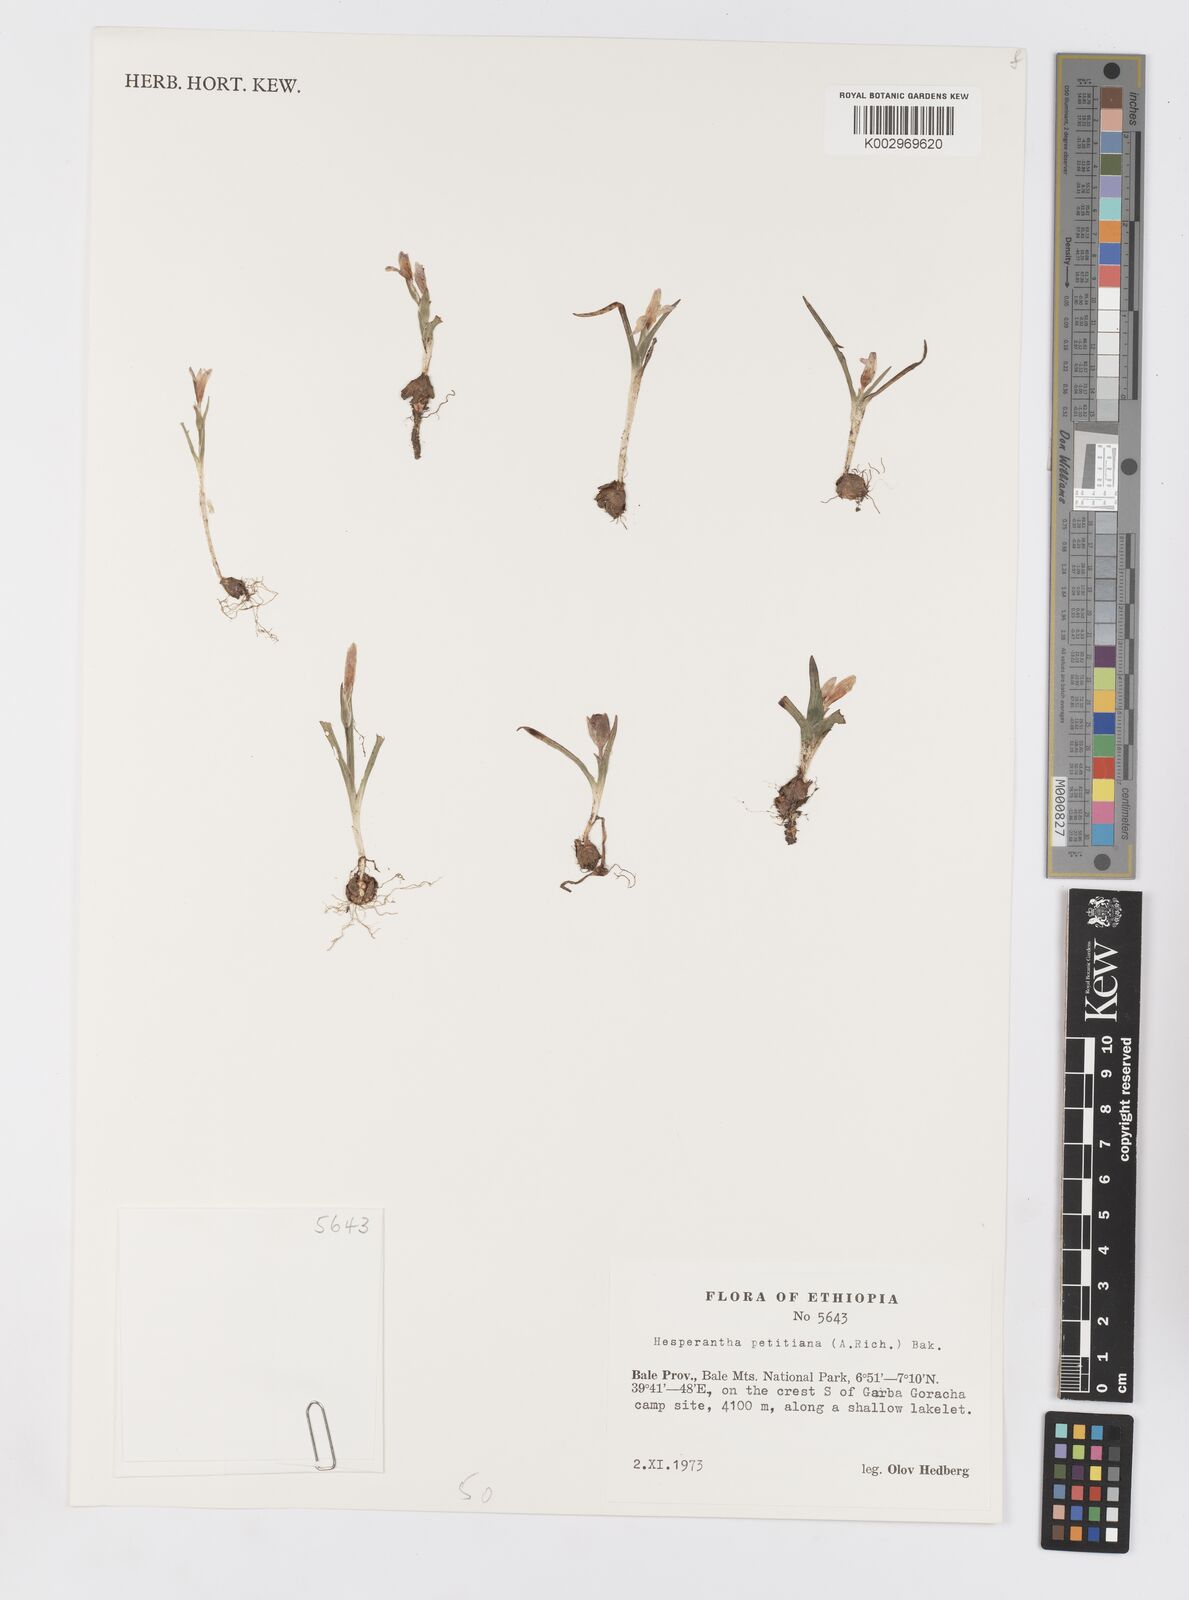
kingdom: Plantae
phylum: Tracheophyta
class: Liliopsida
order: Asparagales
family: Iridaceae
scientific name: Iridaceae
